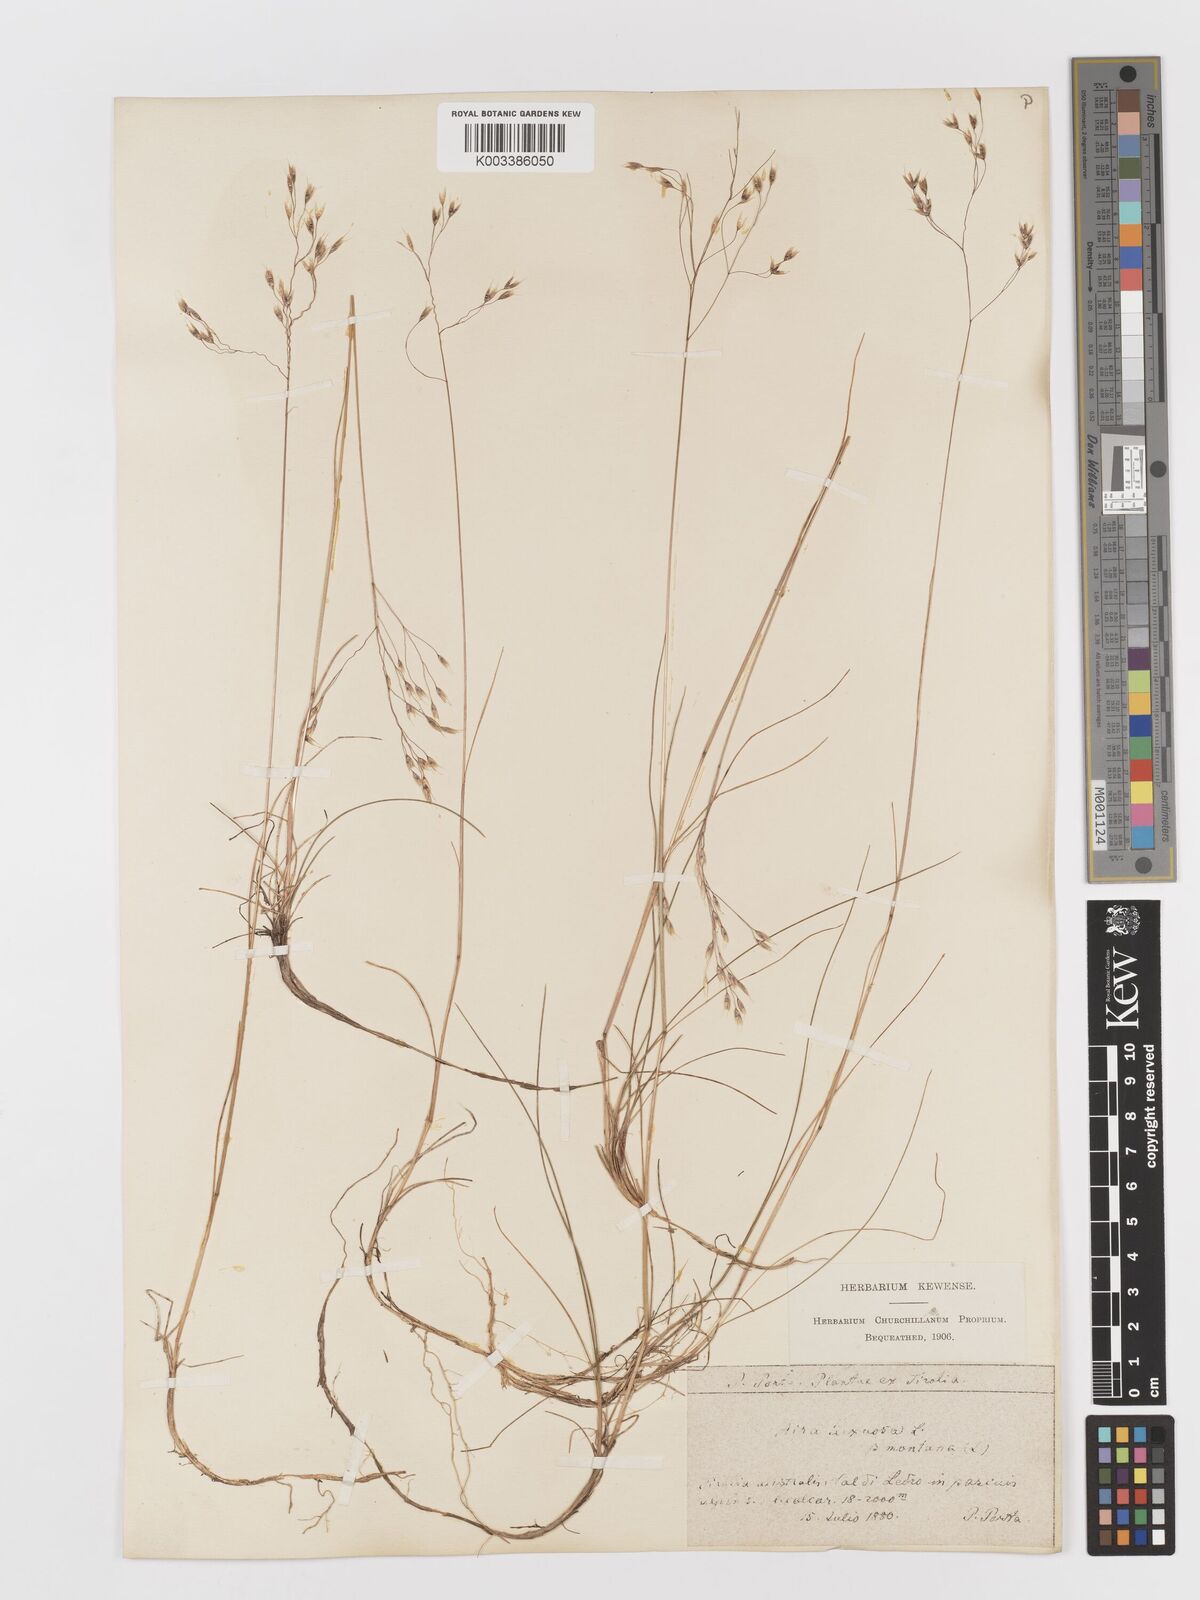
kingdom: Plantae
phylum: Tracheophyta
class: Liliopsida
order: Poales
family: Poaceae
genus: Avenella
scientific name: Avenella flexuosa
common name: Wavy hairgrass
